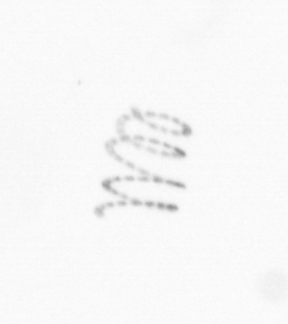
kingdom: Chromista
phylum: Ochrophyta
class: Bacillariophyceae
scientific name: Bacillariophyceae
